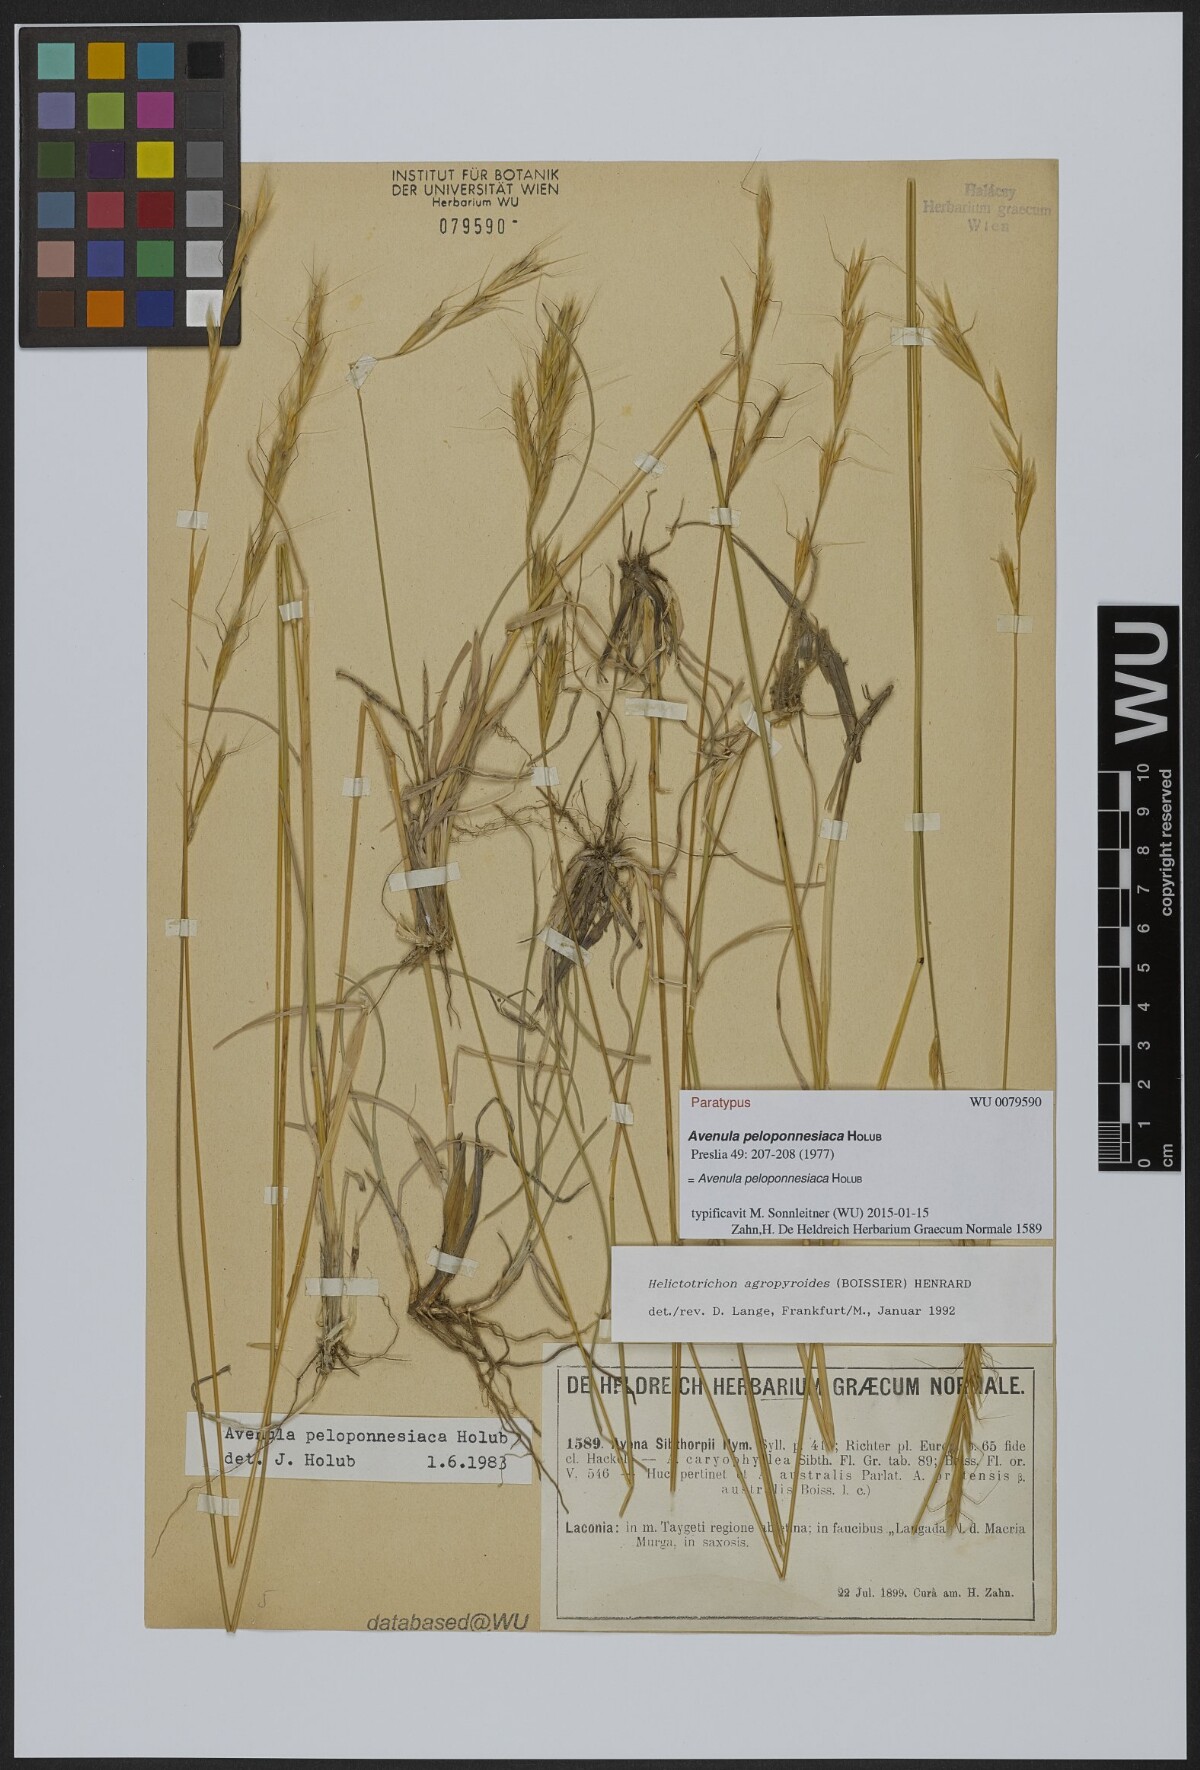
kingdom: Plantae
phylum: Tracheophyta
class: Liliopsida
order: Poales
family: Poaceae
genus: Helictochloa
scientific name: Helictochloa agropyroides
